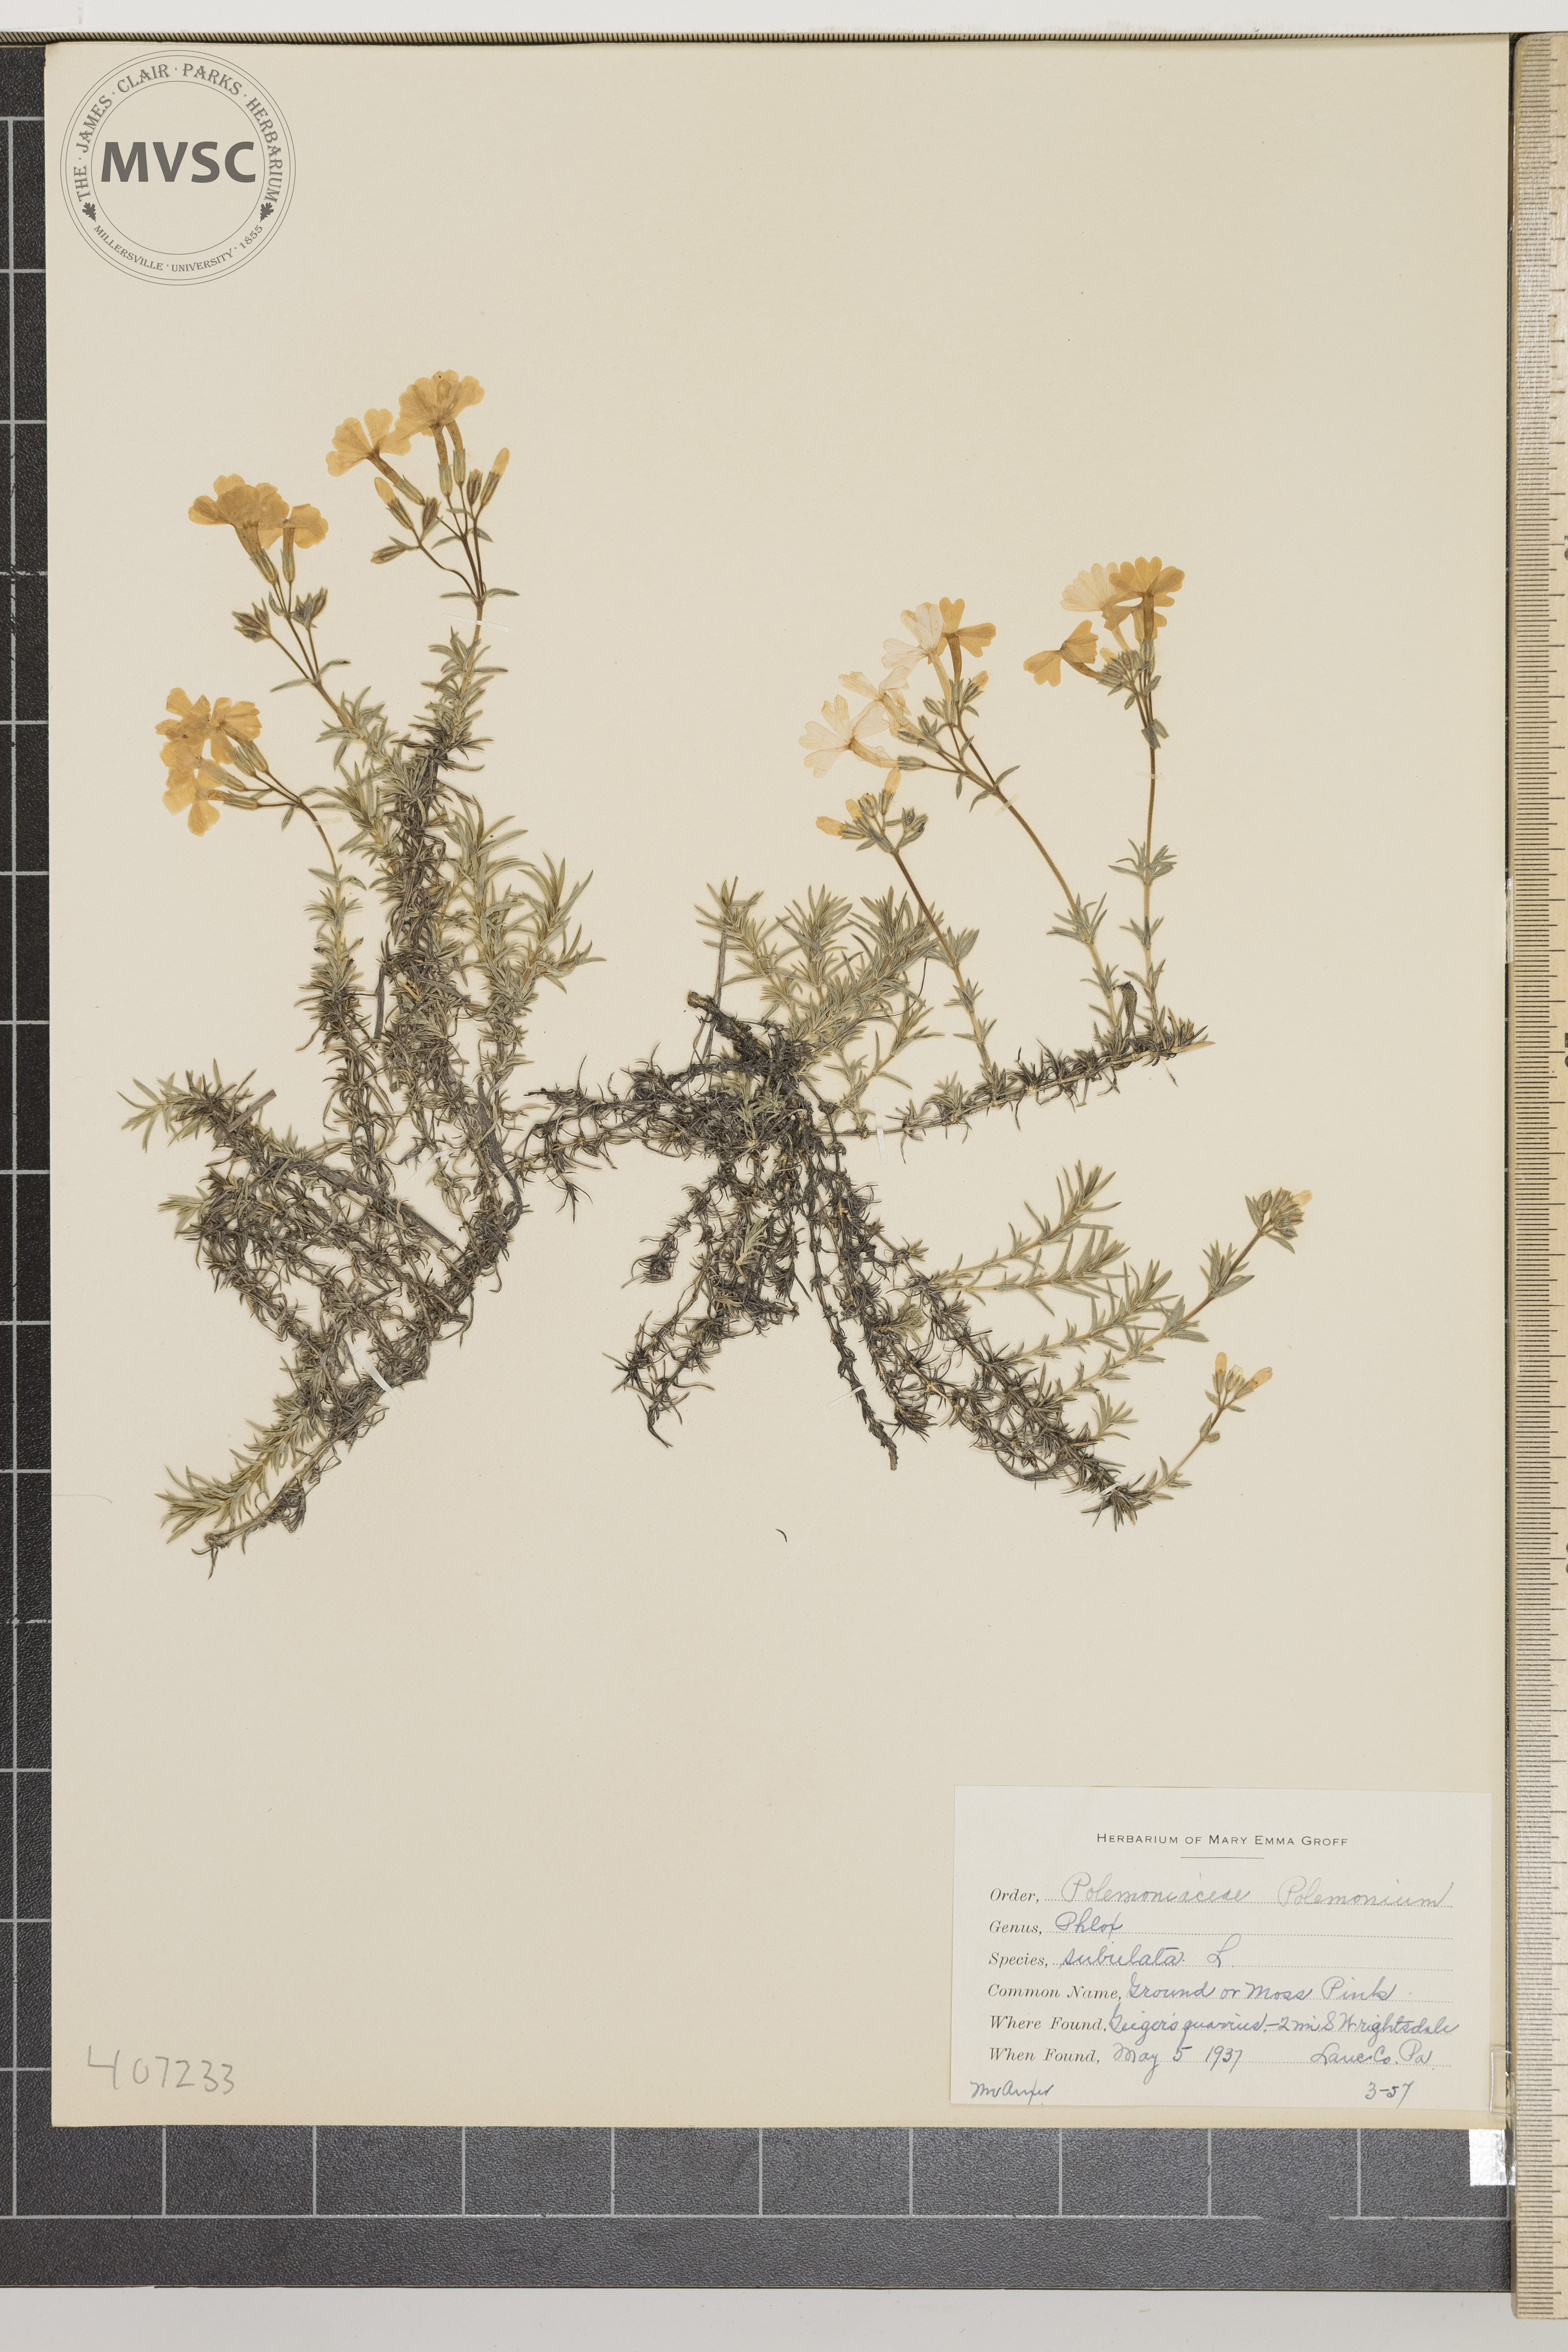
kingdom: Plantae
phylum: Tracheophyta
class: Magnoliopsida
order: Ericales
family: Polemoniaceae
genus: Phlox
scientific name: Phlox subulata
